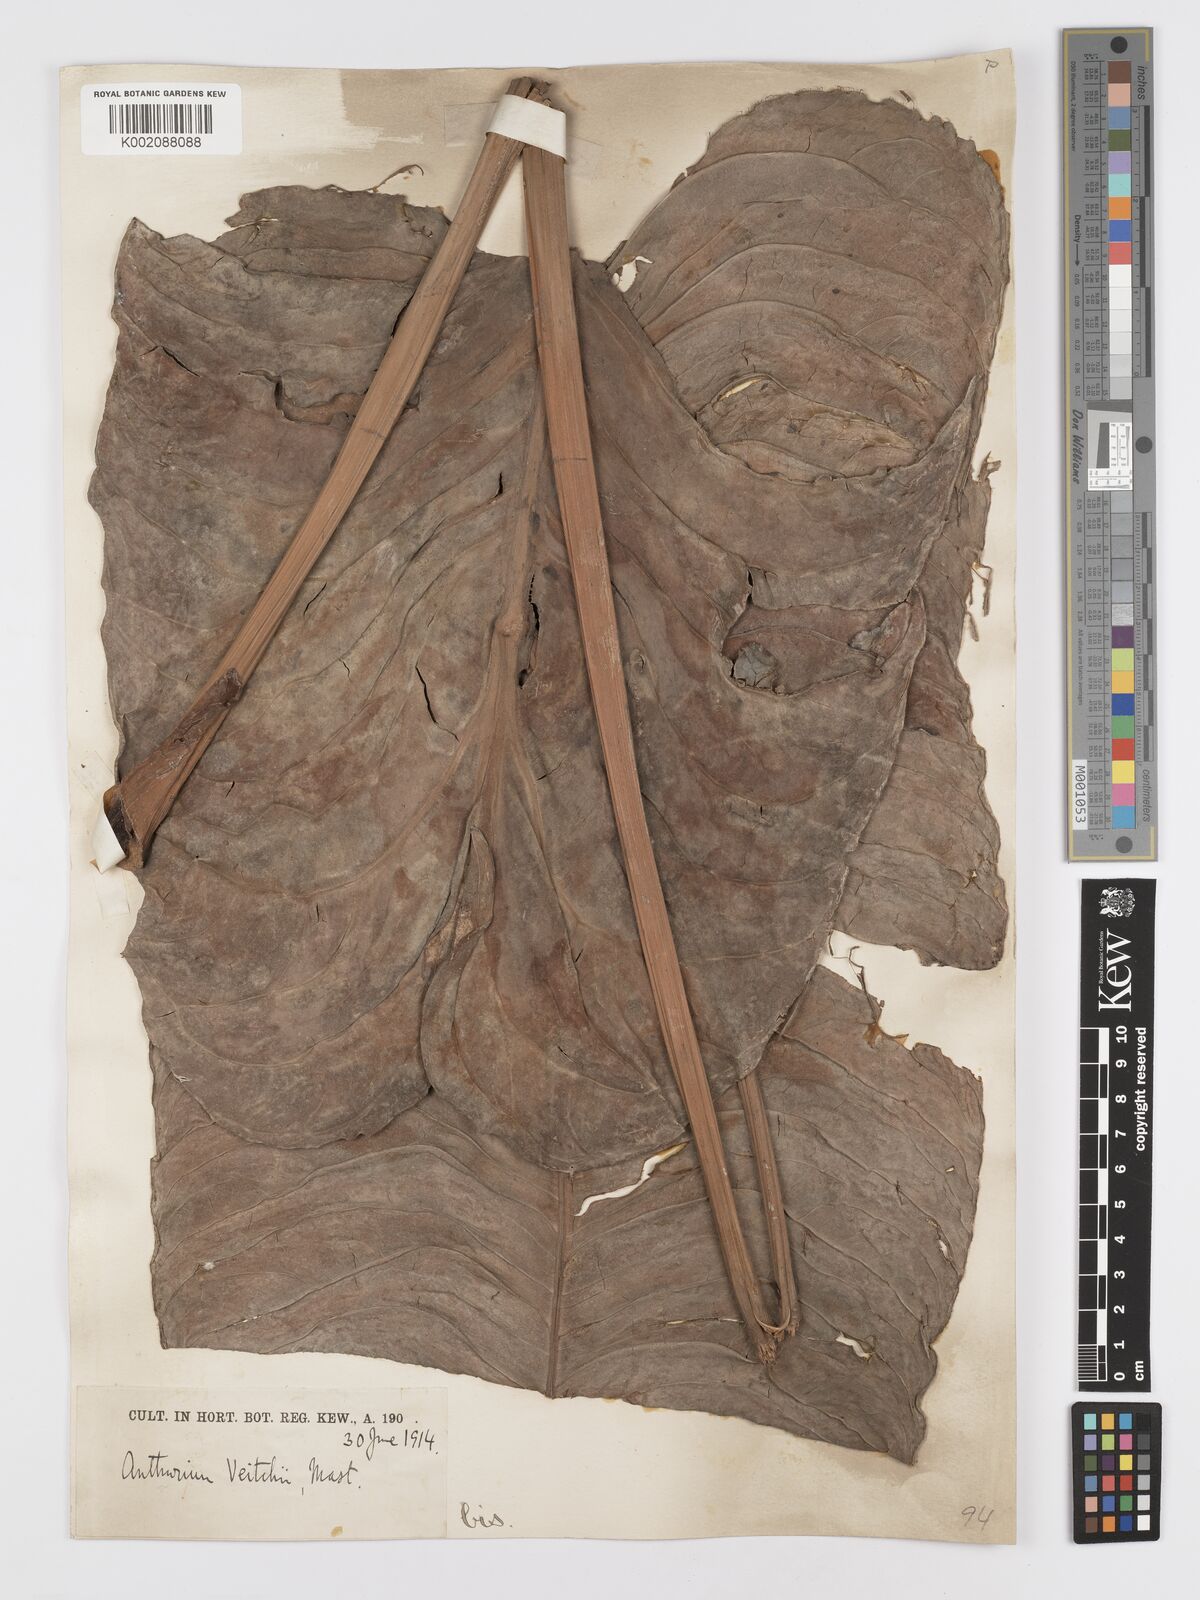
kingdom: Plantae
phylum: Tracheophyta
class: Liliopsida
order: Alismatales
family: Araceae
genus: Anthurium
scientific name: Anthurium veitchii
